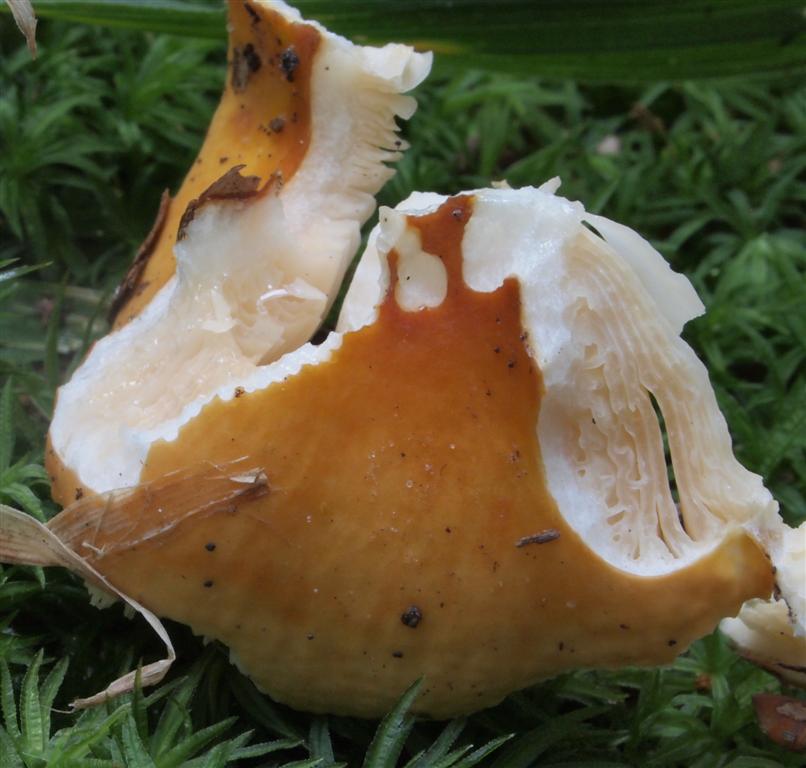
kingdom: Fungi
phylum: Basidiomycota
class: Agaricomycetes
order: Russulales
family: Russulaceae
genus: Russula
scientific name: Russula risigallina
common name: abrikos-skørhat
